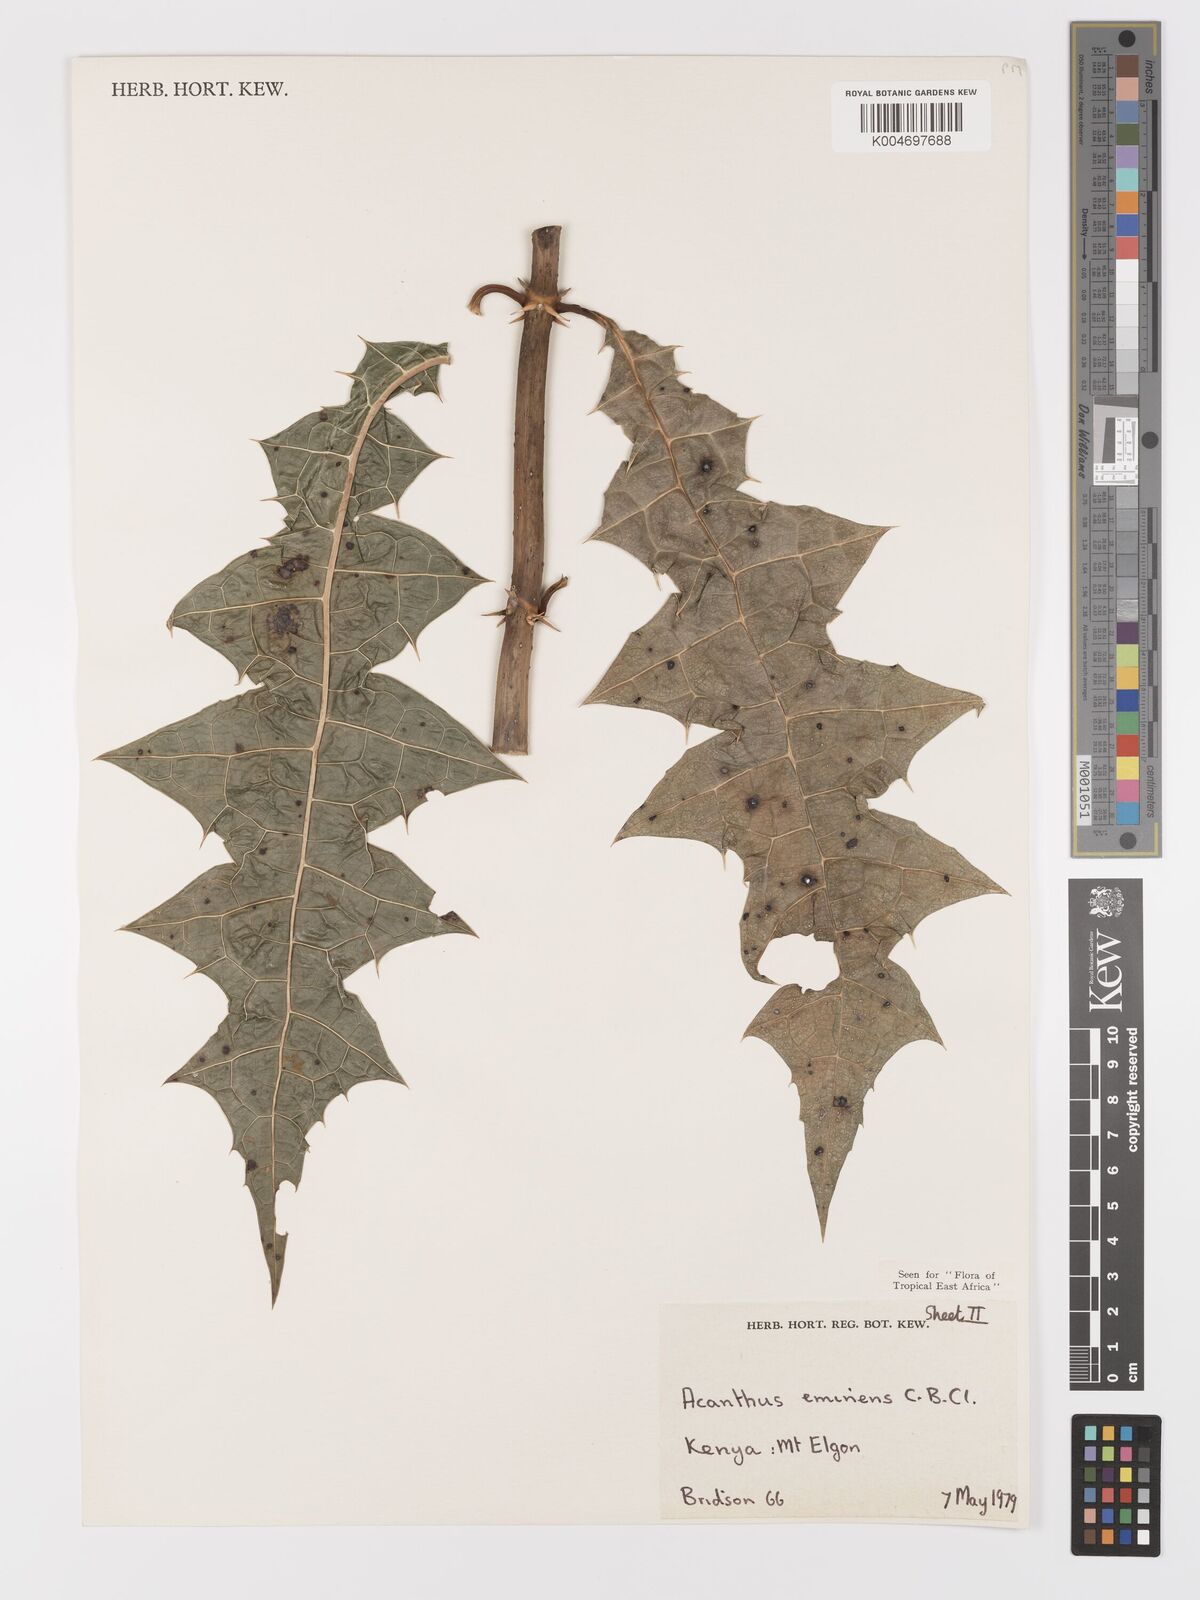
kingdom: Plantae
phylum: Tracheophyta
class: Magnoliopsida
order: Lamiales
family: Acanthaceae
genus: Acanthus
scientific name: Acanthus eminens
